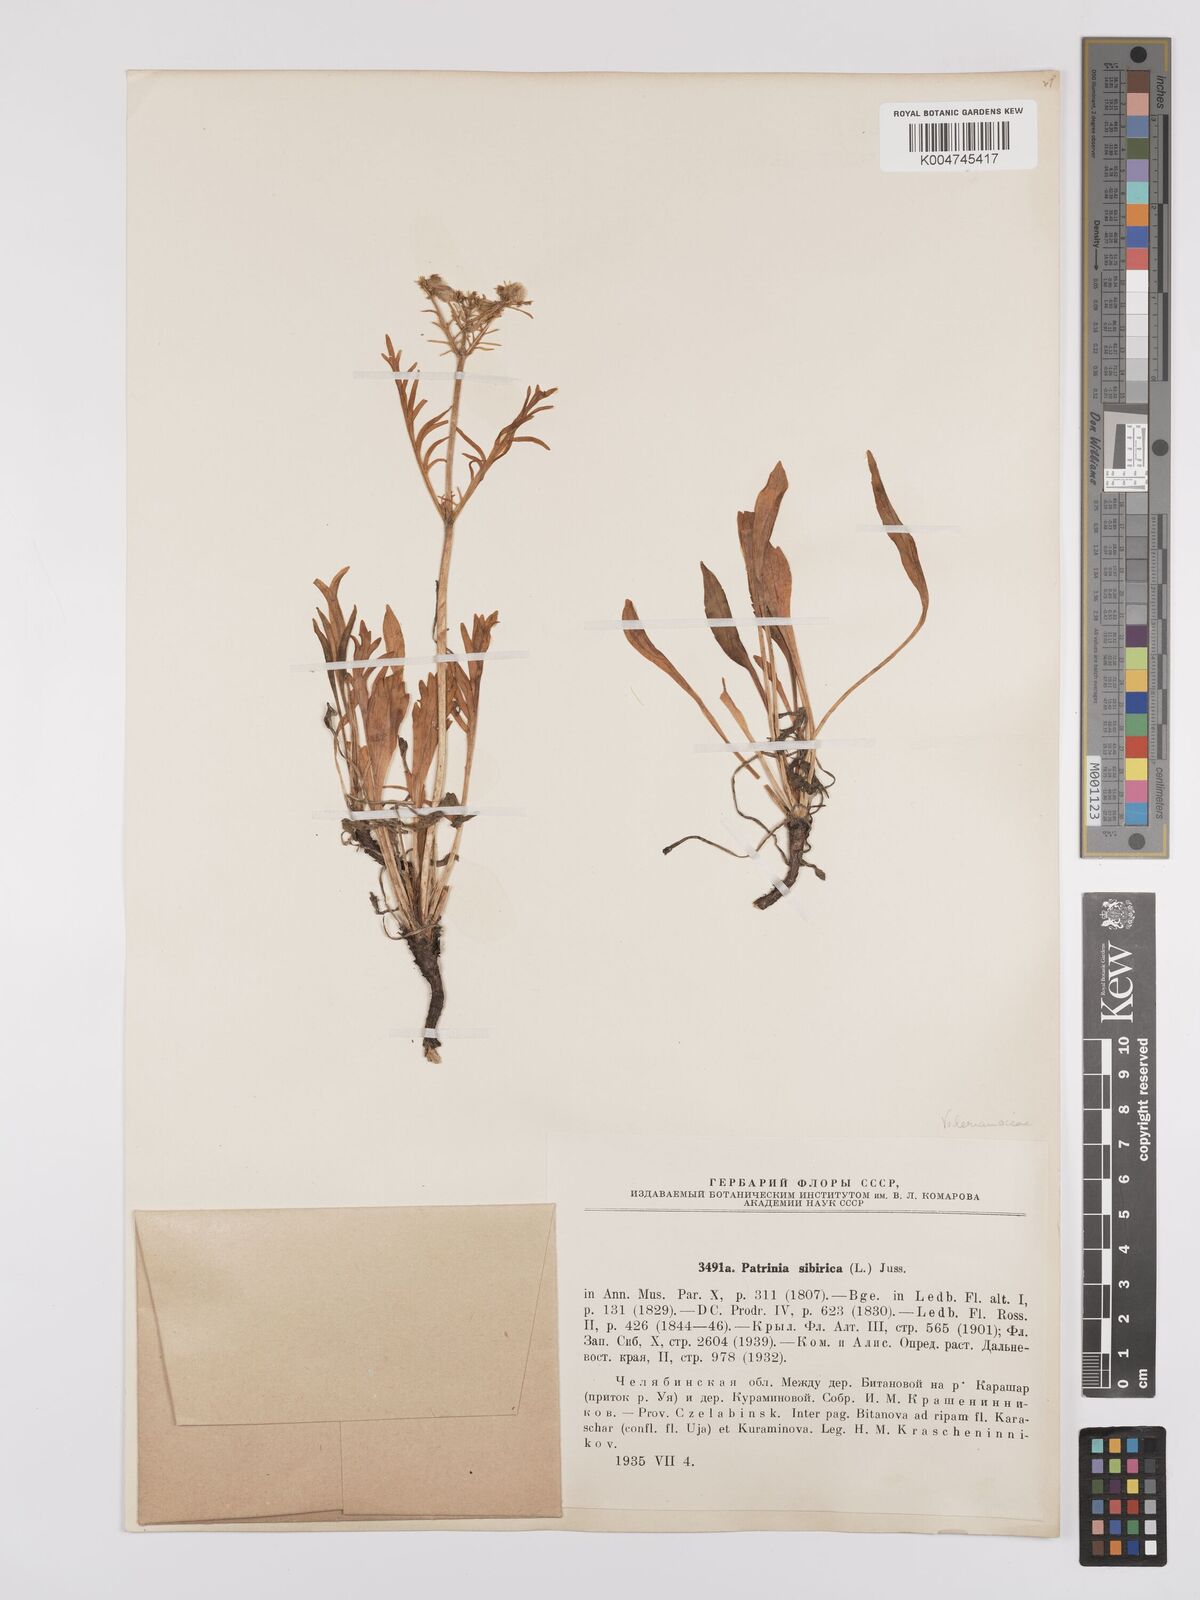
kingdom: Plantae
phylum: Tracheophyta
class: Magnoliopsida
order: Dipsacales
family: Caprifoliaceae
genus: Patrinia
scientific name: Patrinia sibirica
